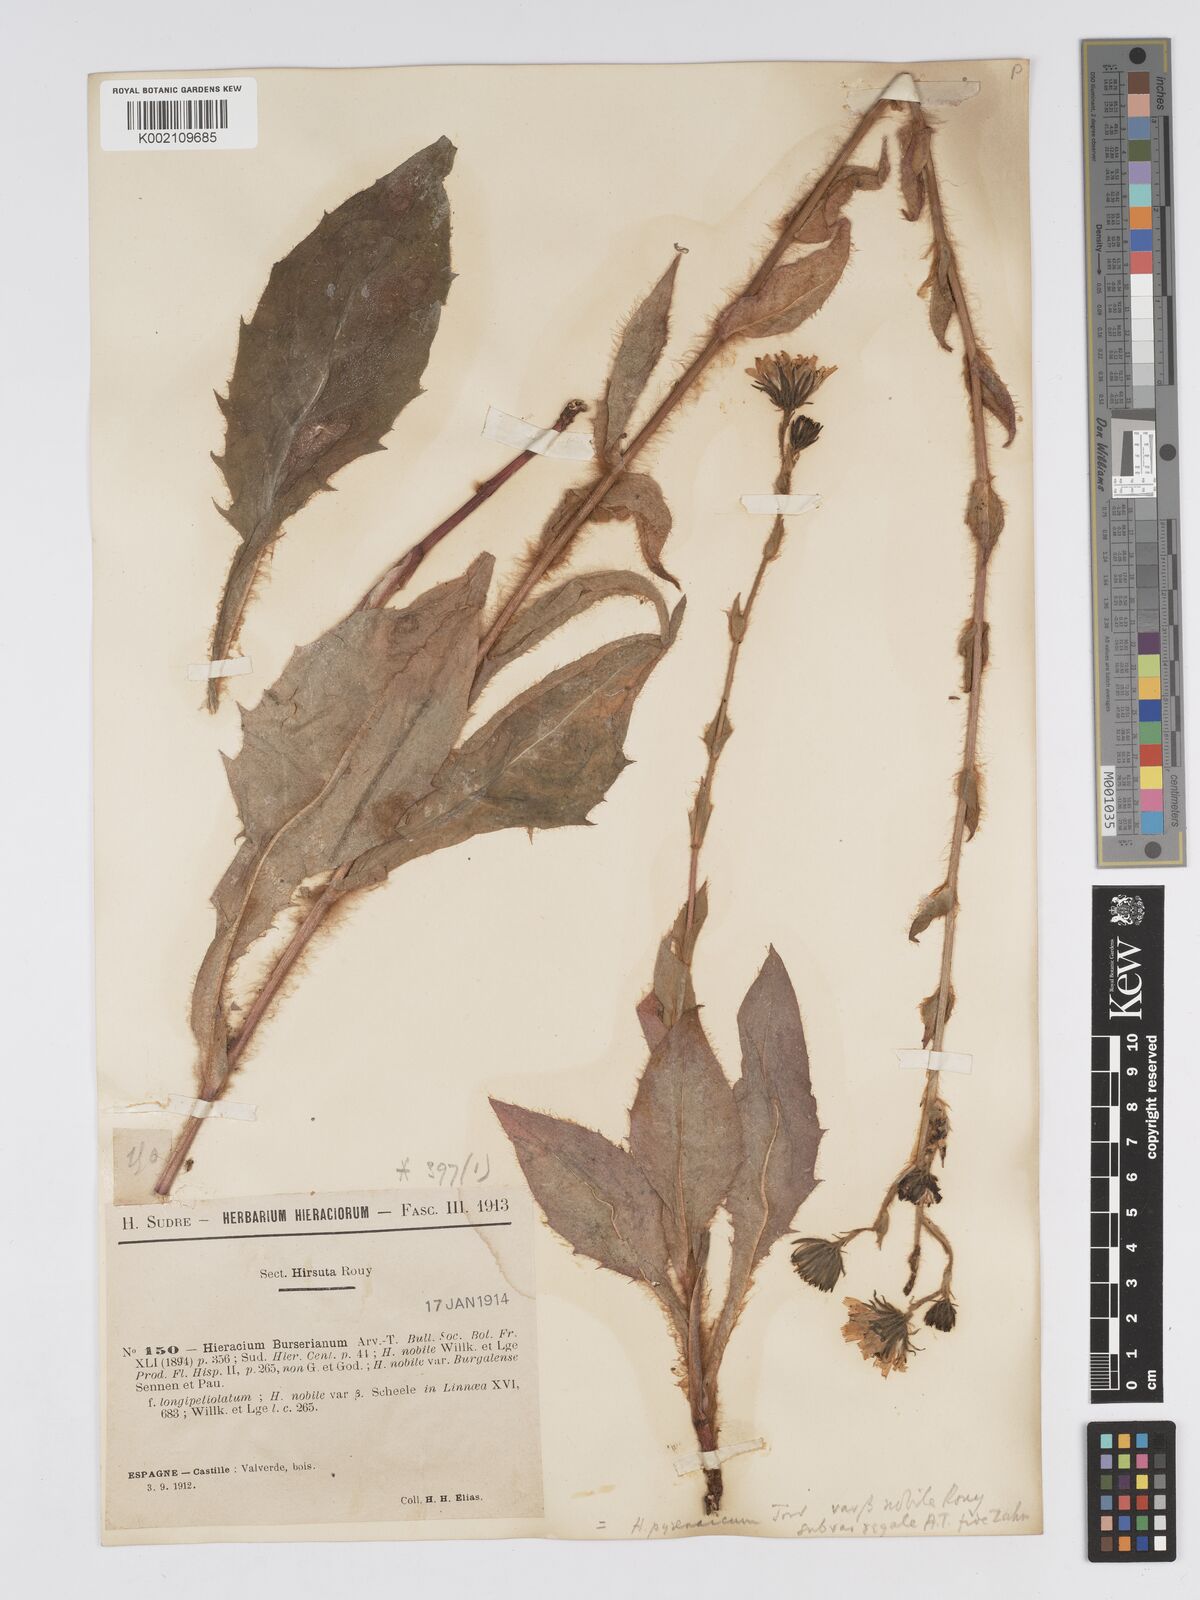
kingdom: Plantae
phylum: Tracheophyta
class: Magnoliopsida
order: Asterales
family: Asteraceae
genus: Hieracium
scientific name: Hieracium nobile
